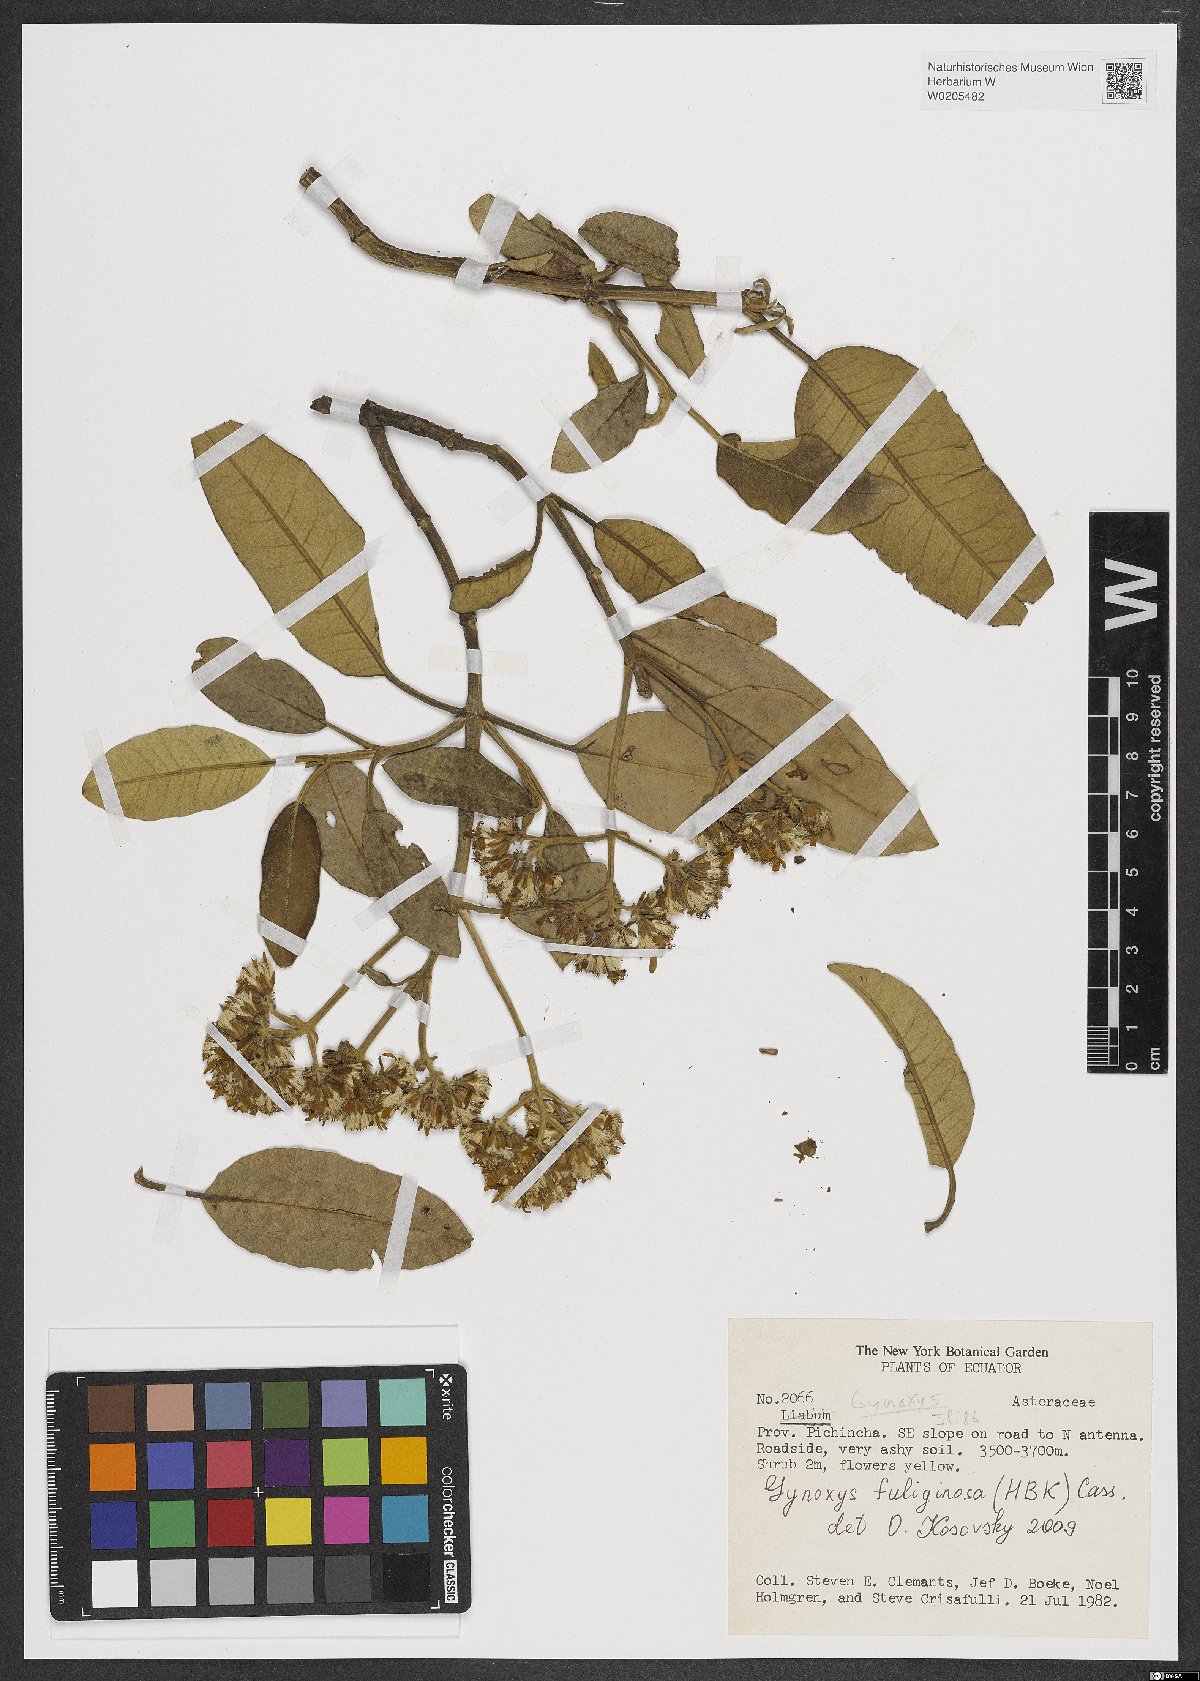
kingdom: Plantae
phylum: Tracheophyta
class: Magnoliopsida
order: Asterales
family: Asteraceae
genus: Gynoxys
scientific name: Gynoxys fuliginosa
